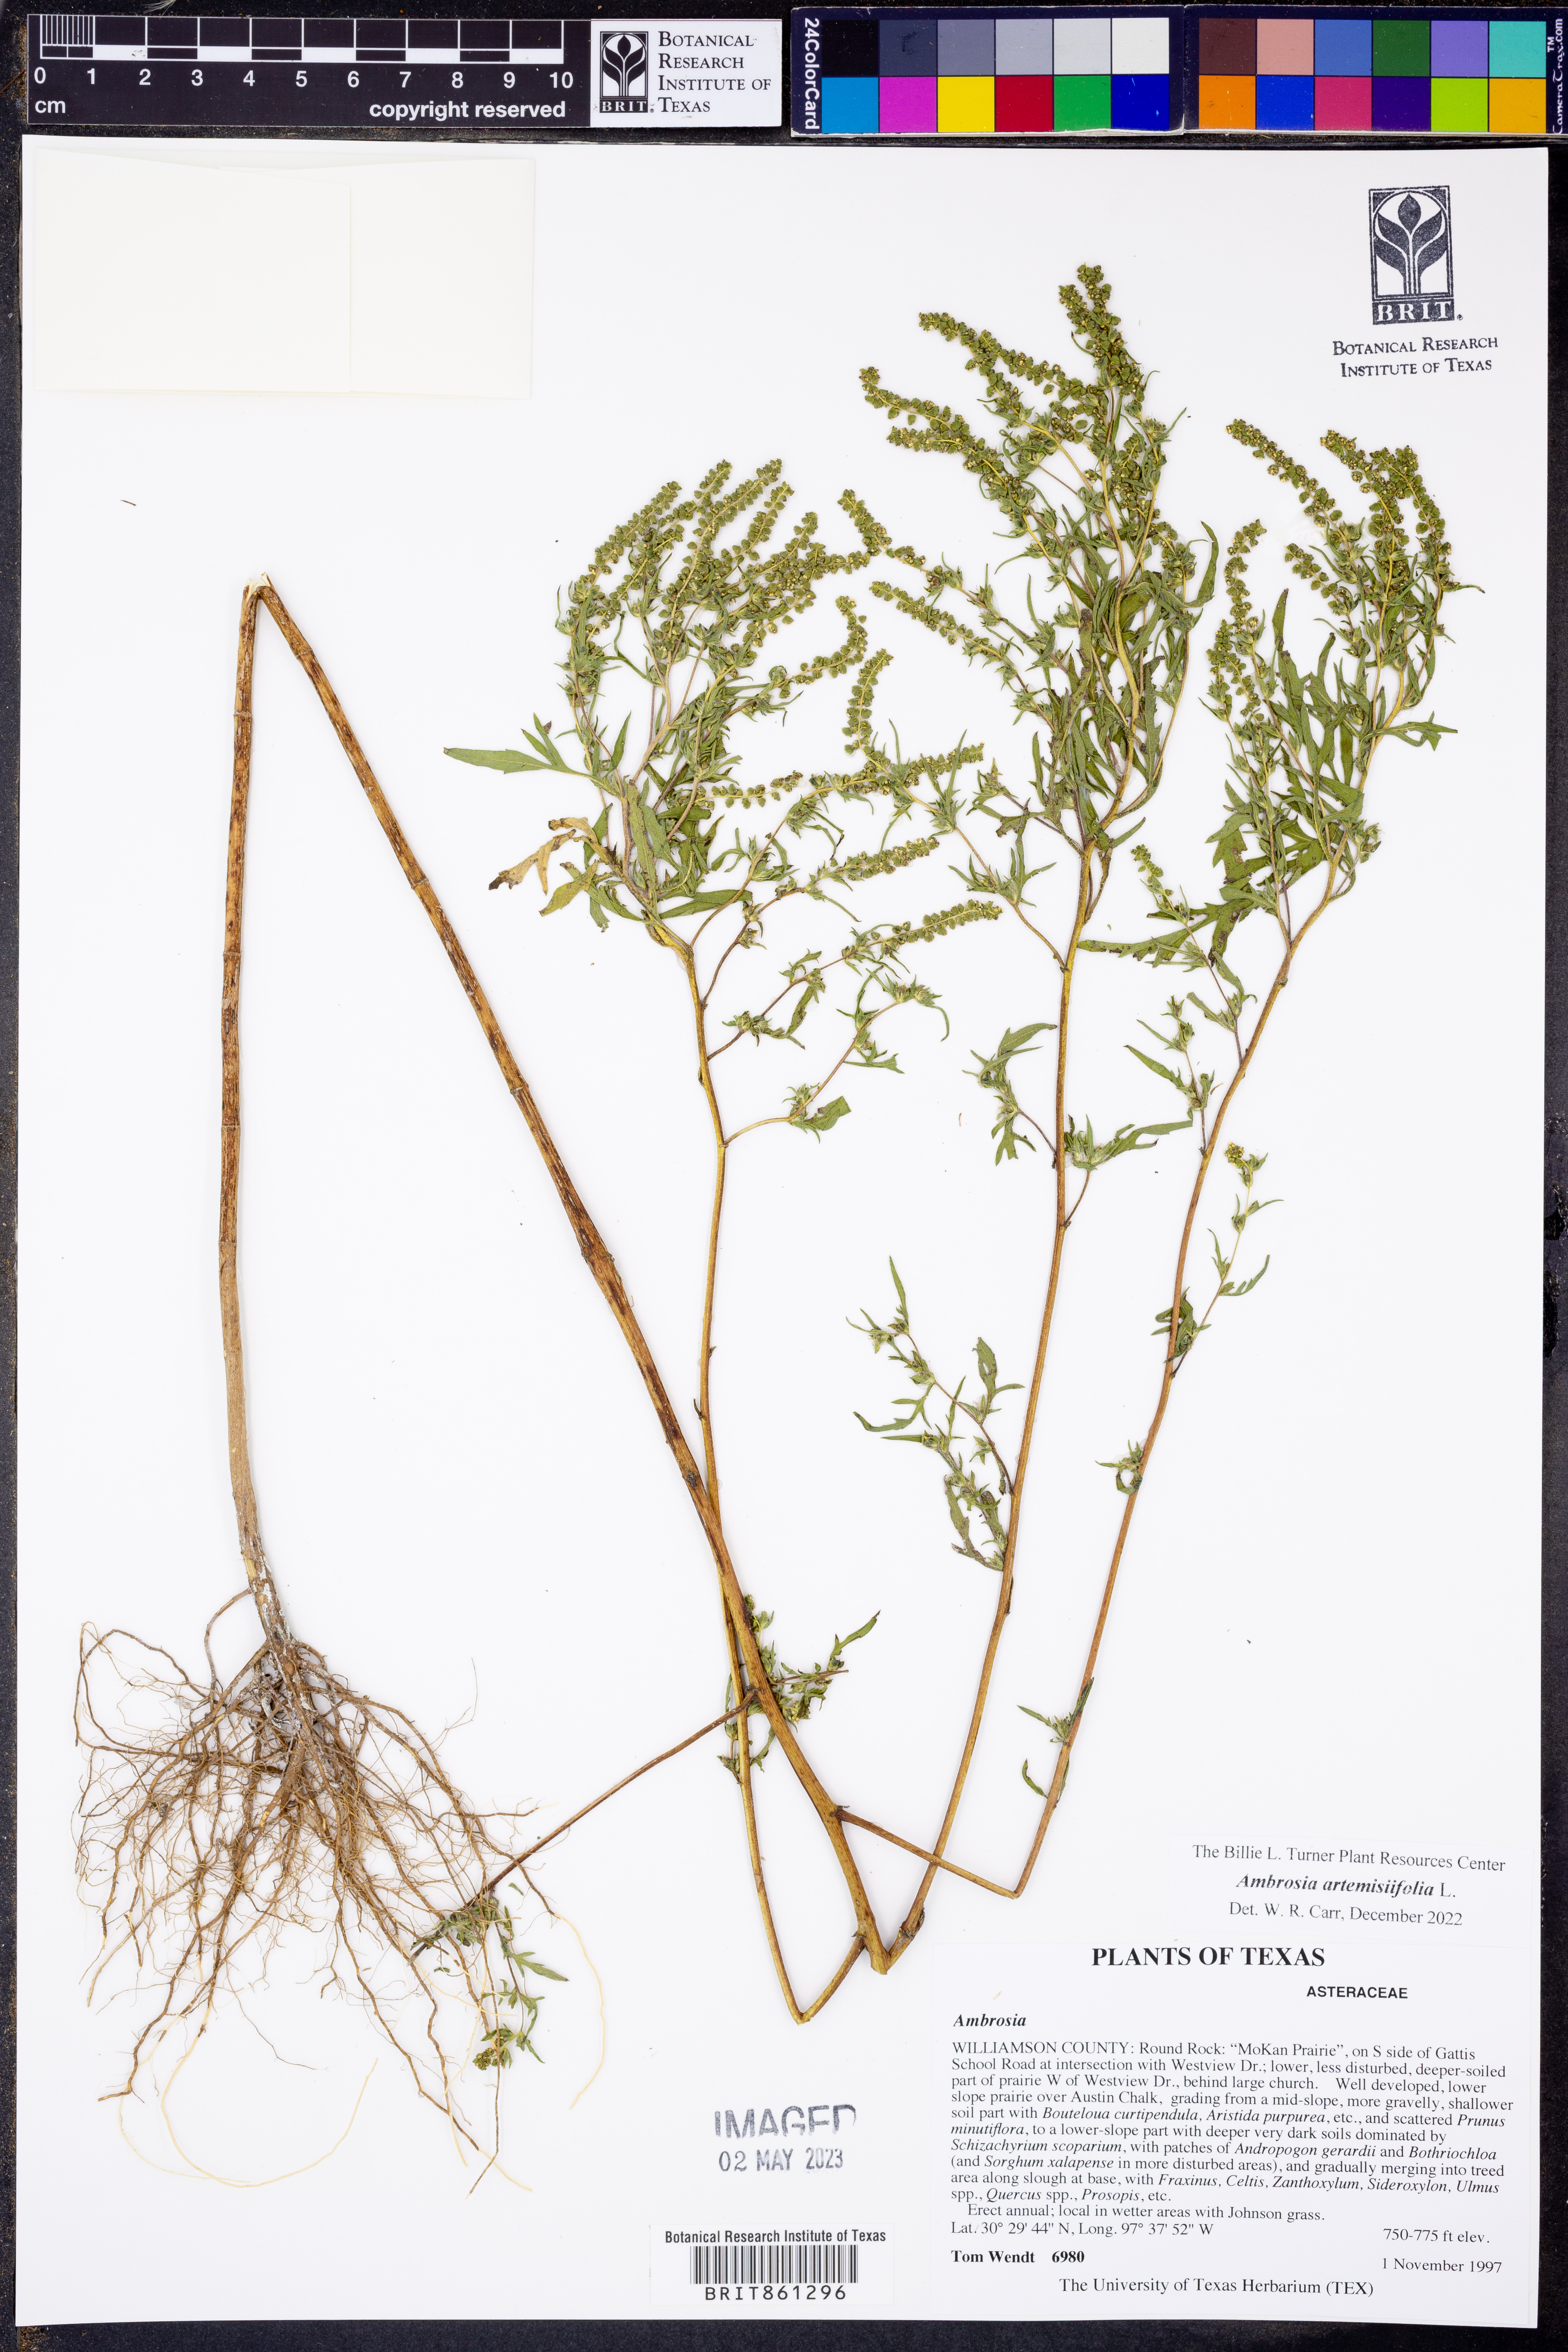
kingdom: Plantae
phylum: Tracheophyta
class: Magnoliopsida
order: Asterales
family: Asteraceae
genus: Ambrosia
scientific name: Ambrosia artemisiifolia
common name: Annual ragweed
